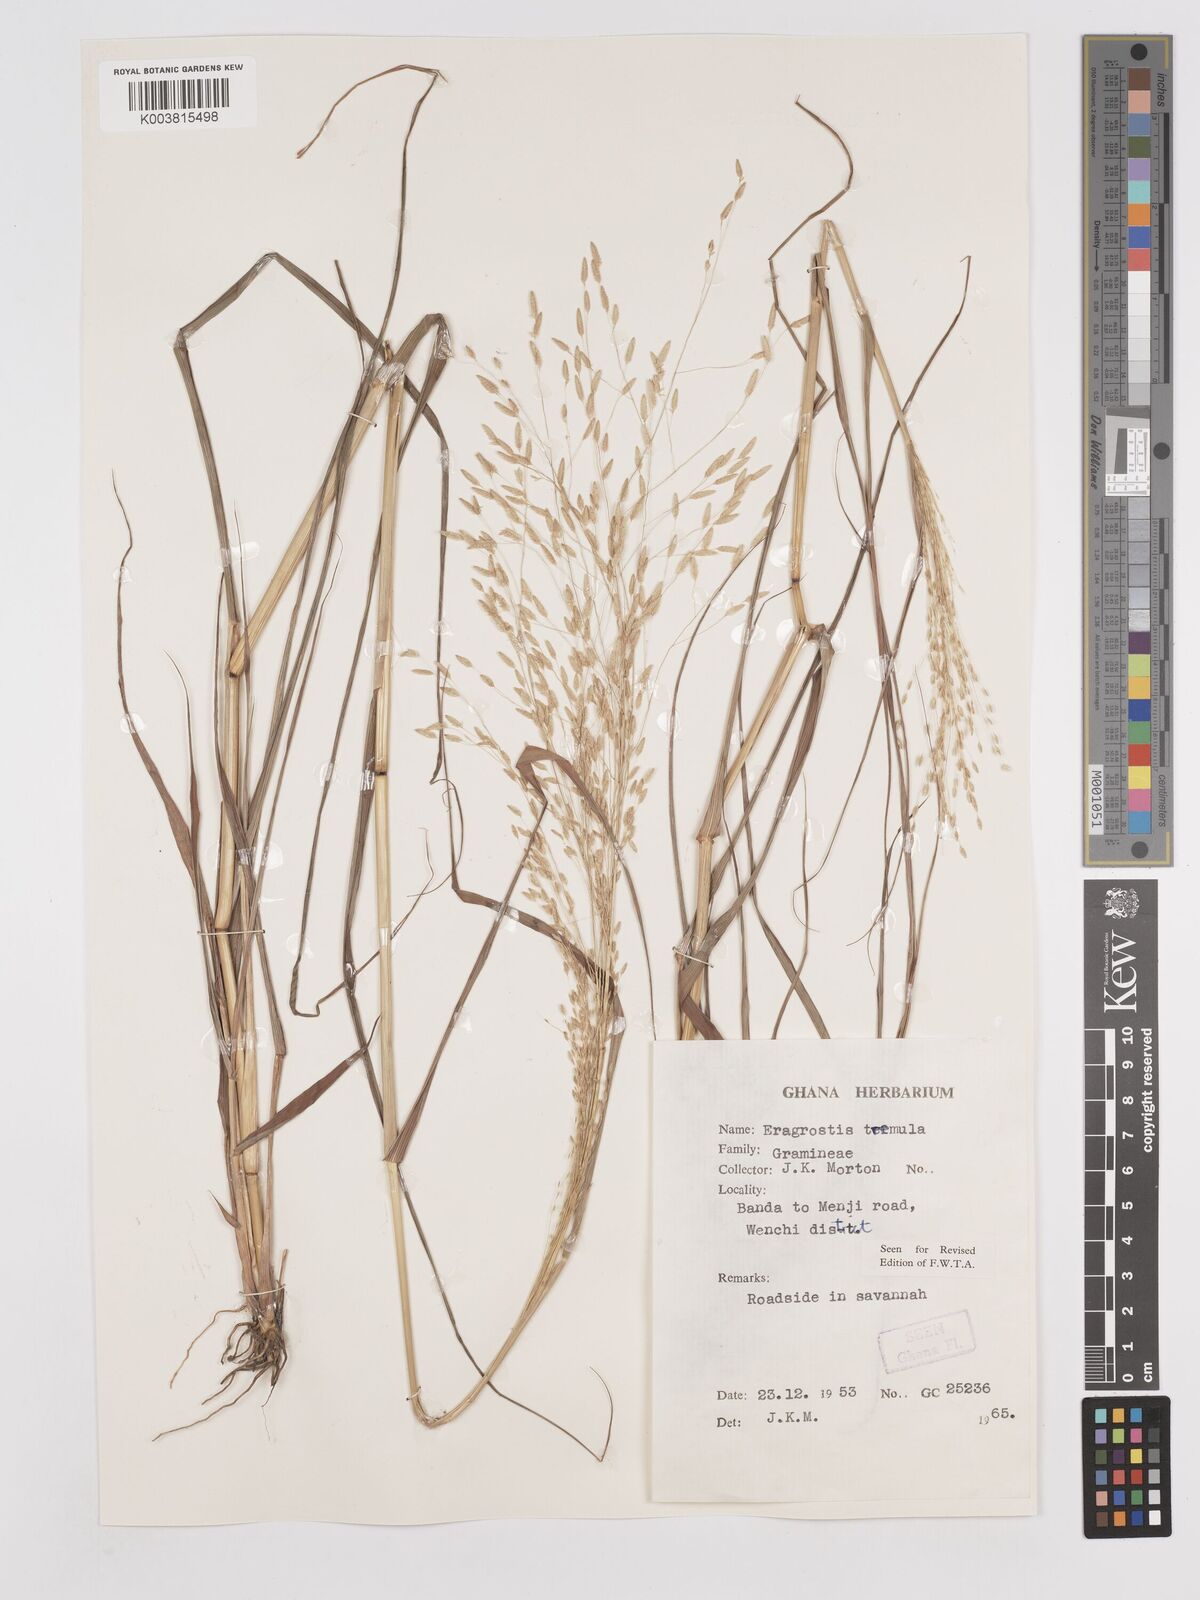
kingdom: Plantae
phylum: Tracheophyta
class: Liliopsida
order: Poales
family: Poaceae
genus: Eragrostis
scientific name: Eragrostis tremula
